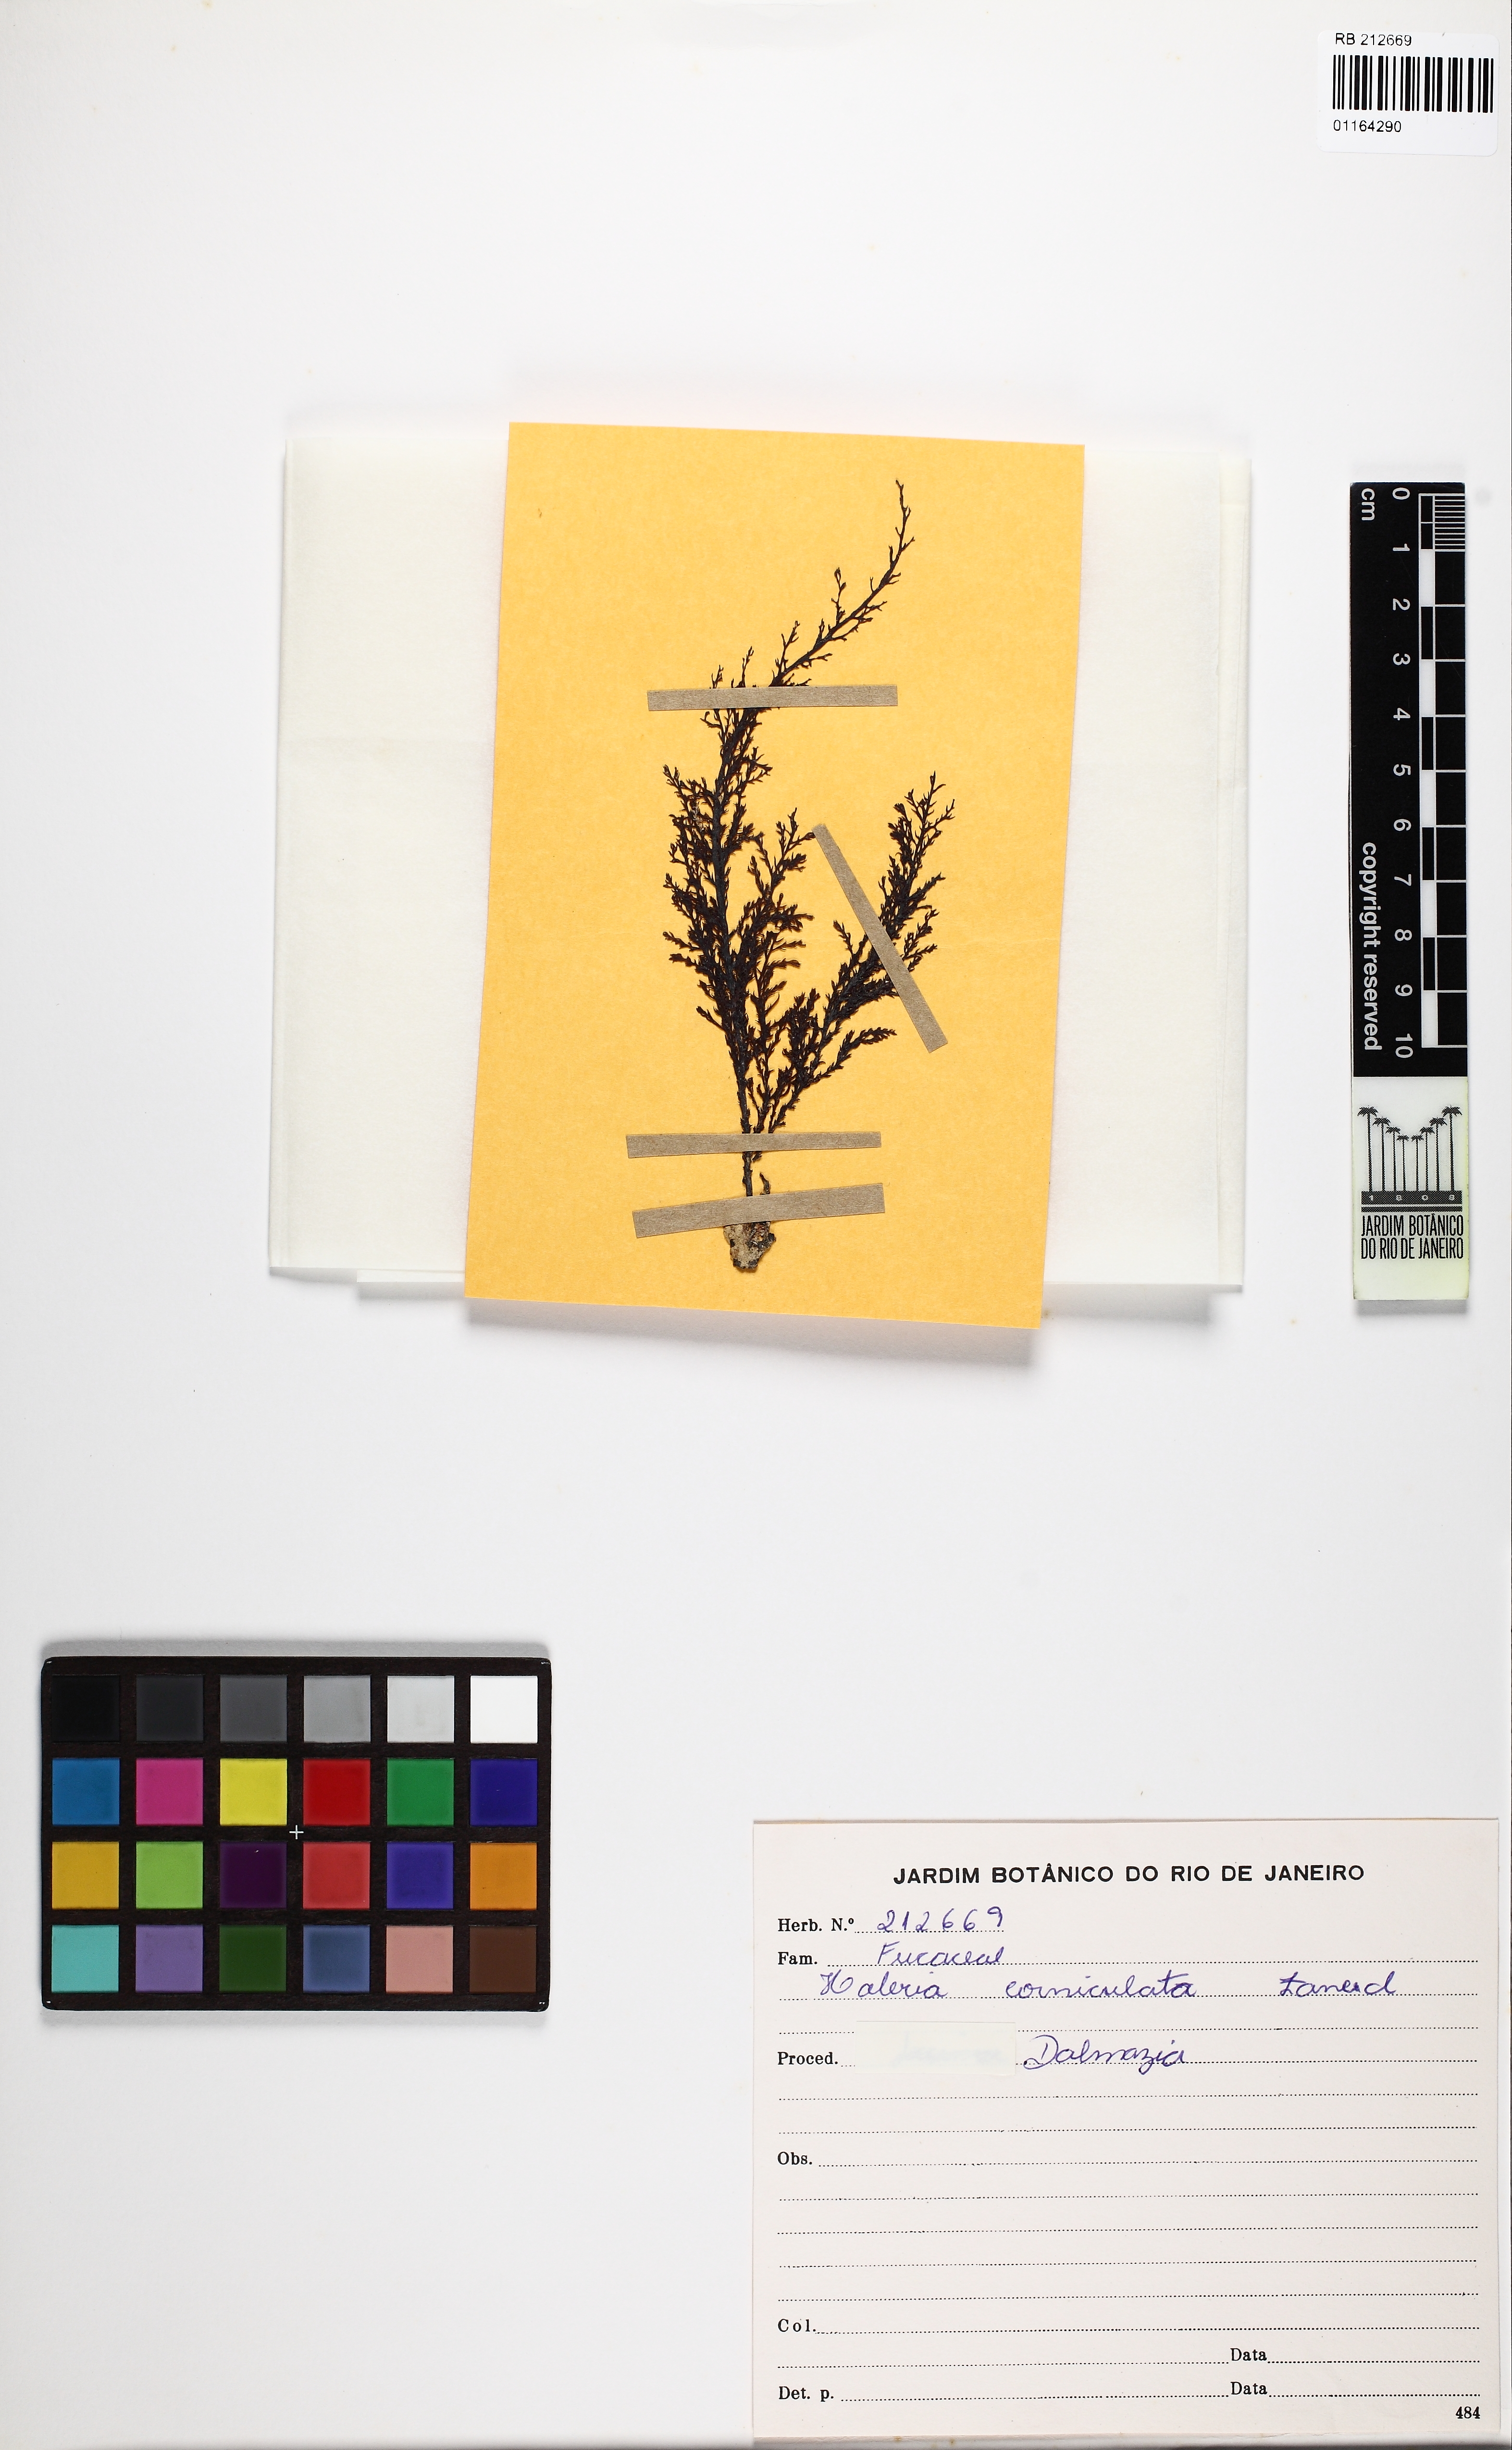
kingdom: Chromista
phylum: Ochrophyta
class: Phaeophyceae
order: Fucales
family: Sargassaceae
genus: Cystoseira
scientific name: Cystoseira
